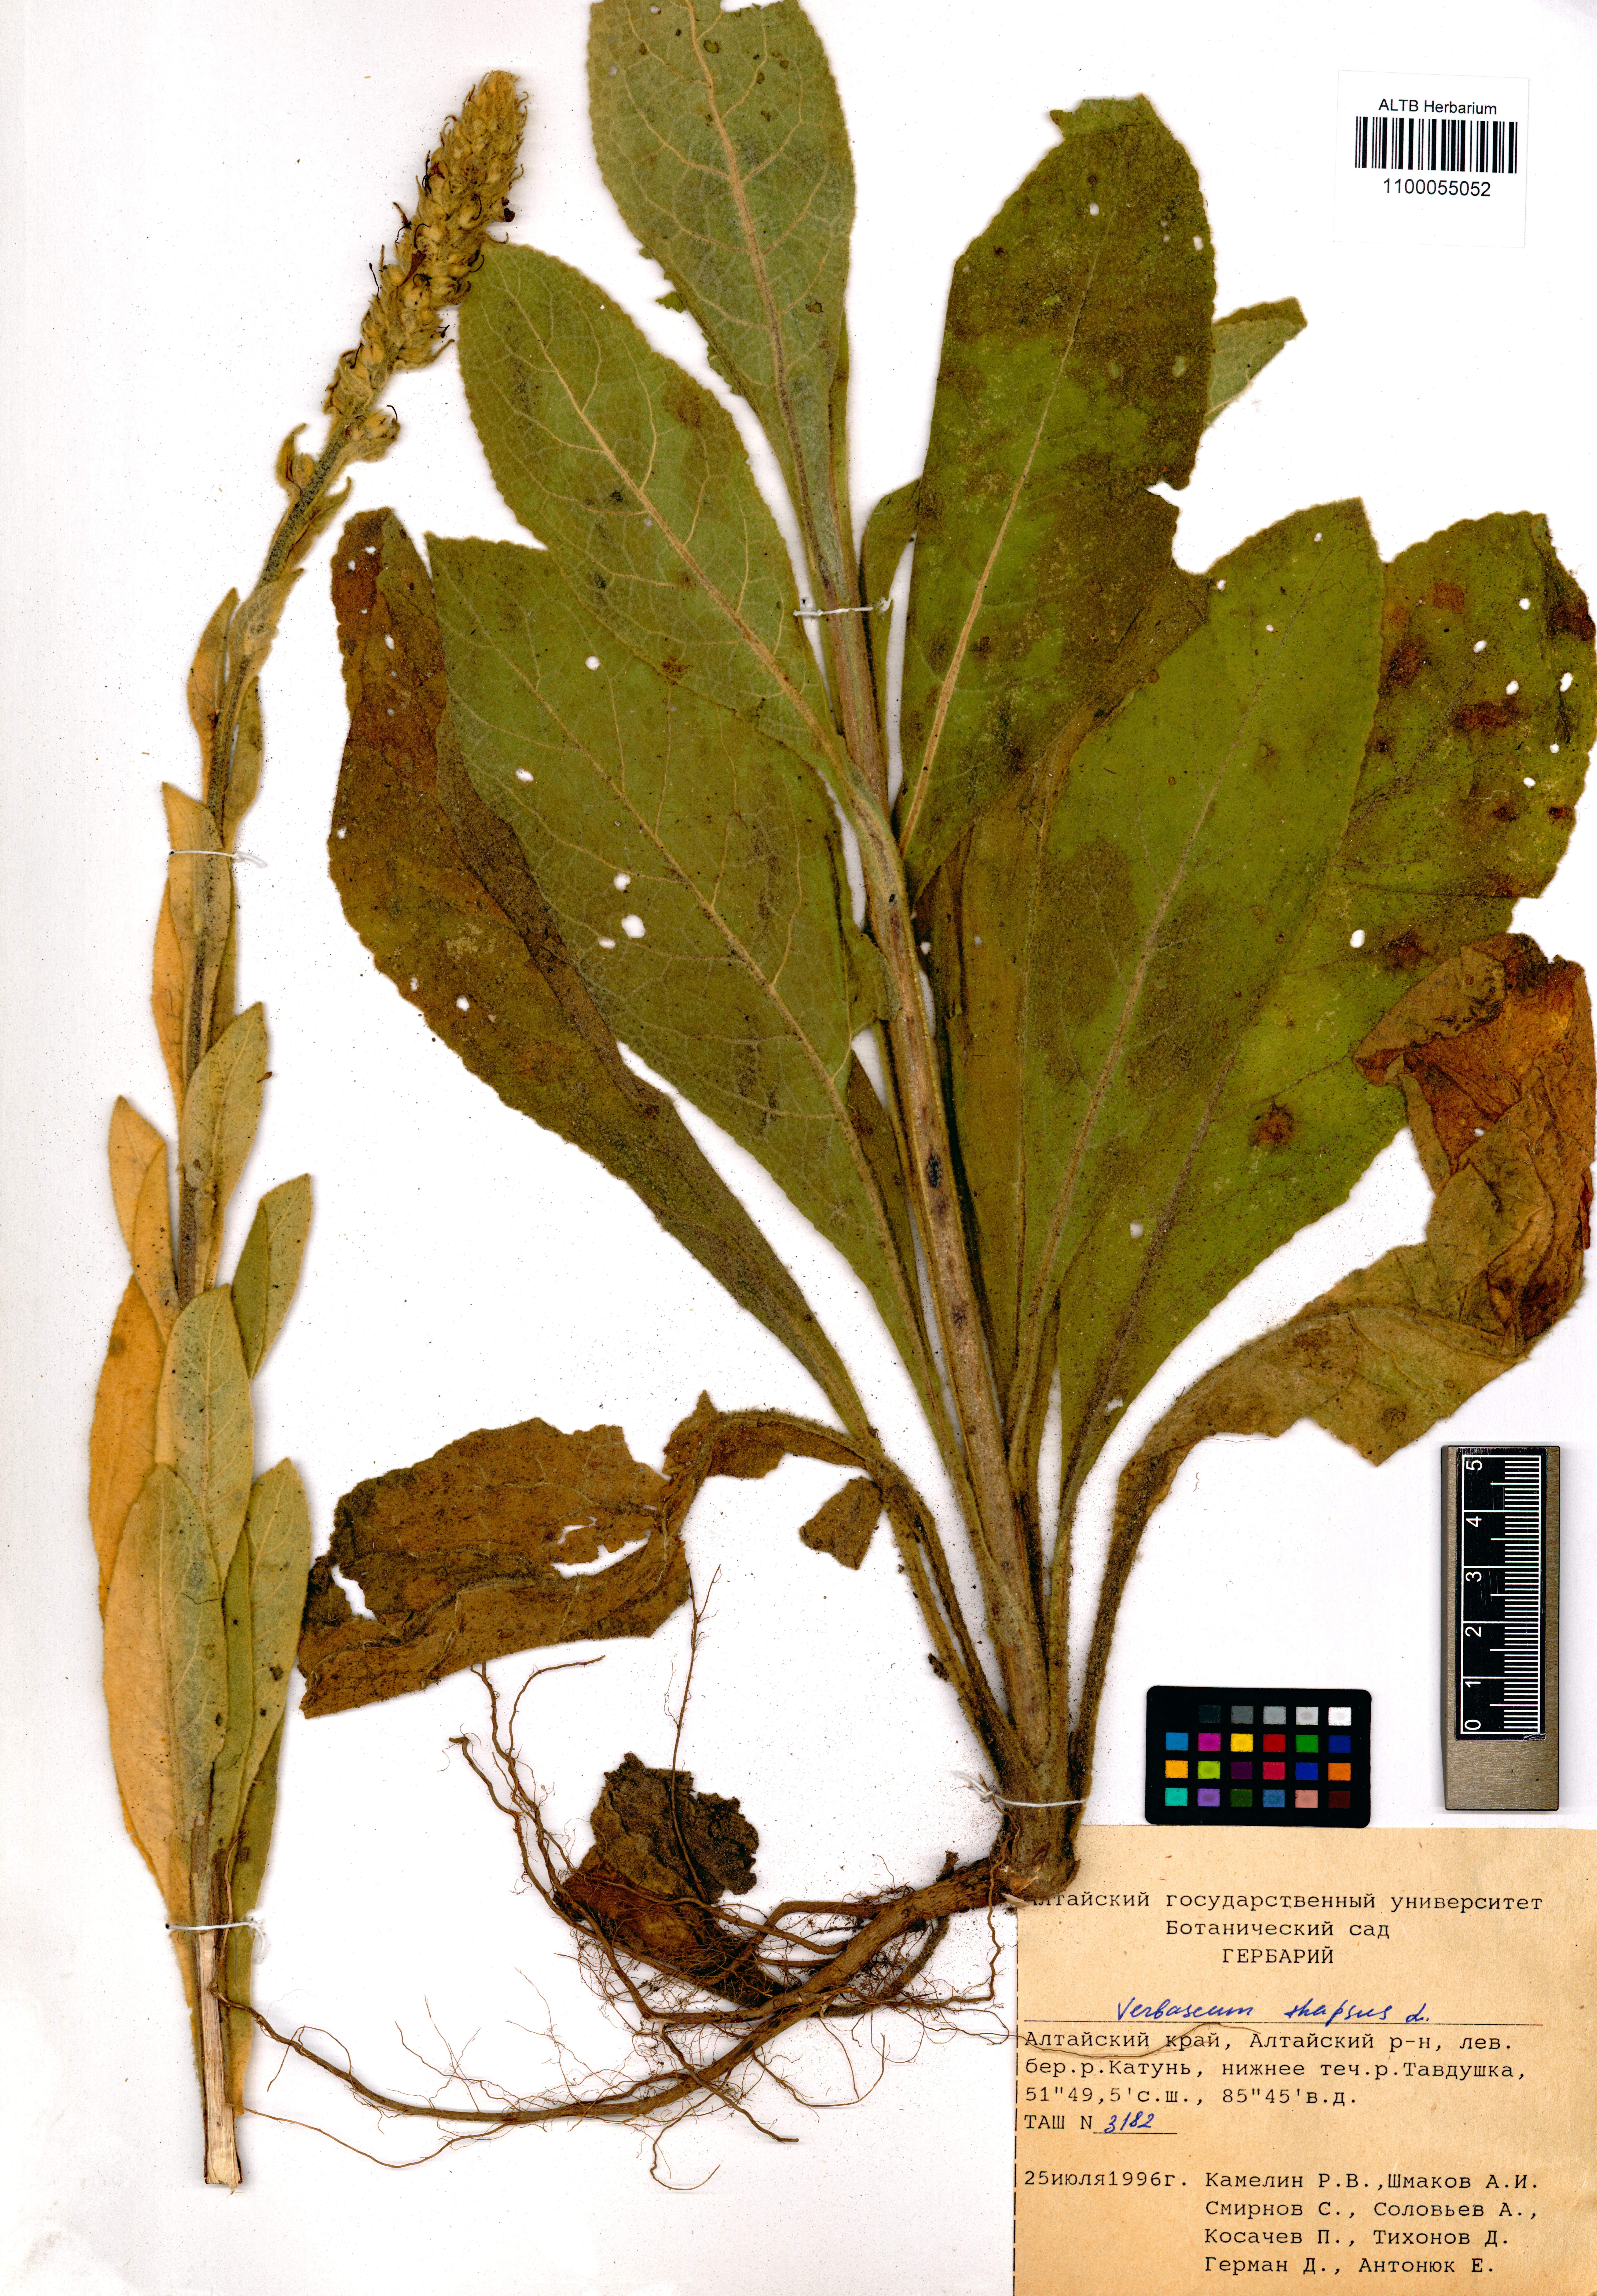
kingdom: Plantae
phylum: Tracheophyta
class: Magnoliopsida
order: Lamiales
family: Scrophulariaceae
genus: Verbascum
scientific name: Verbascum thapsus
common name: Common mullein
